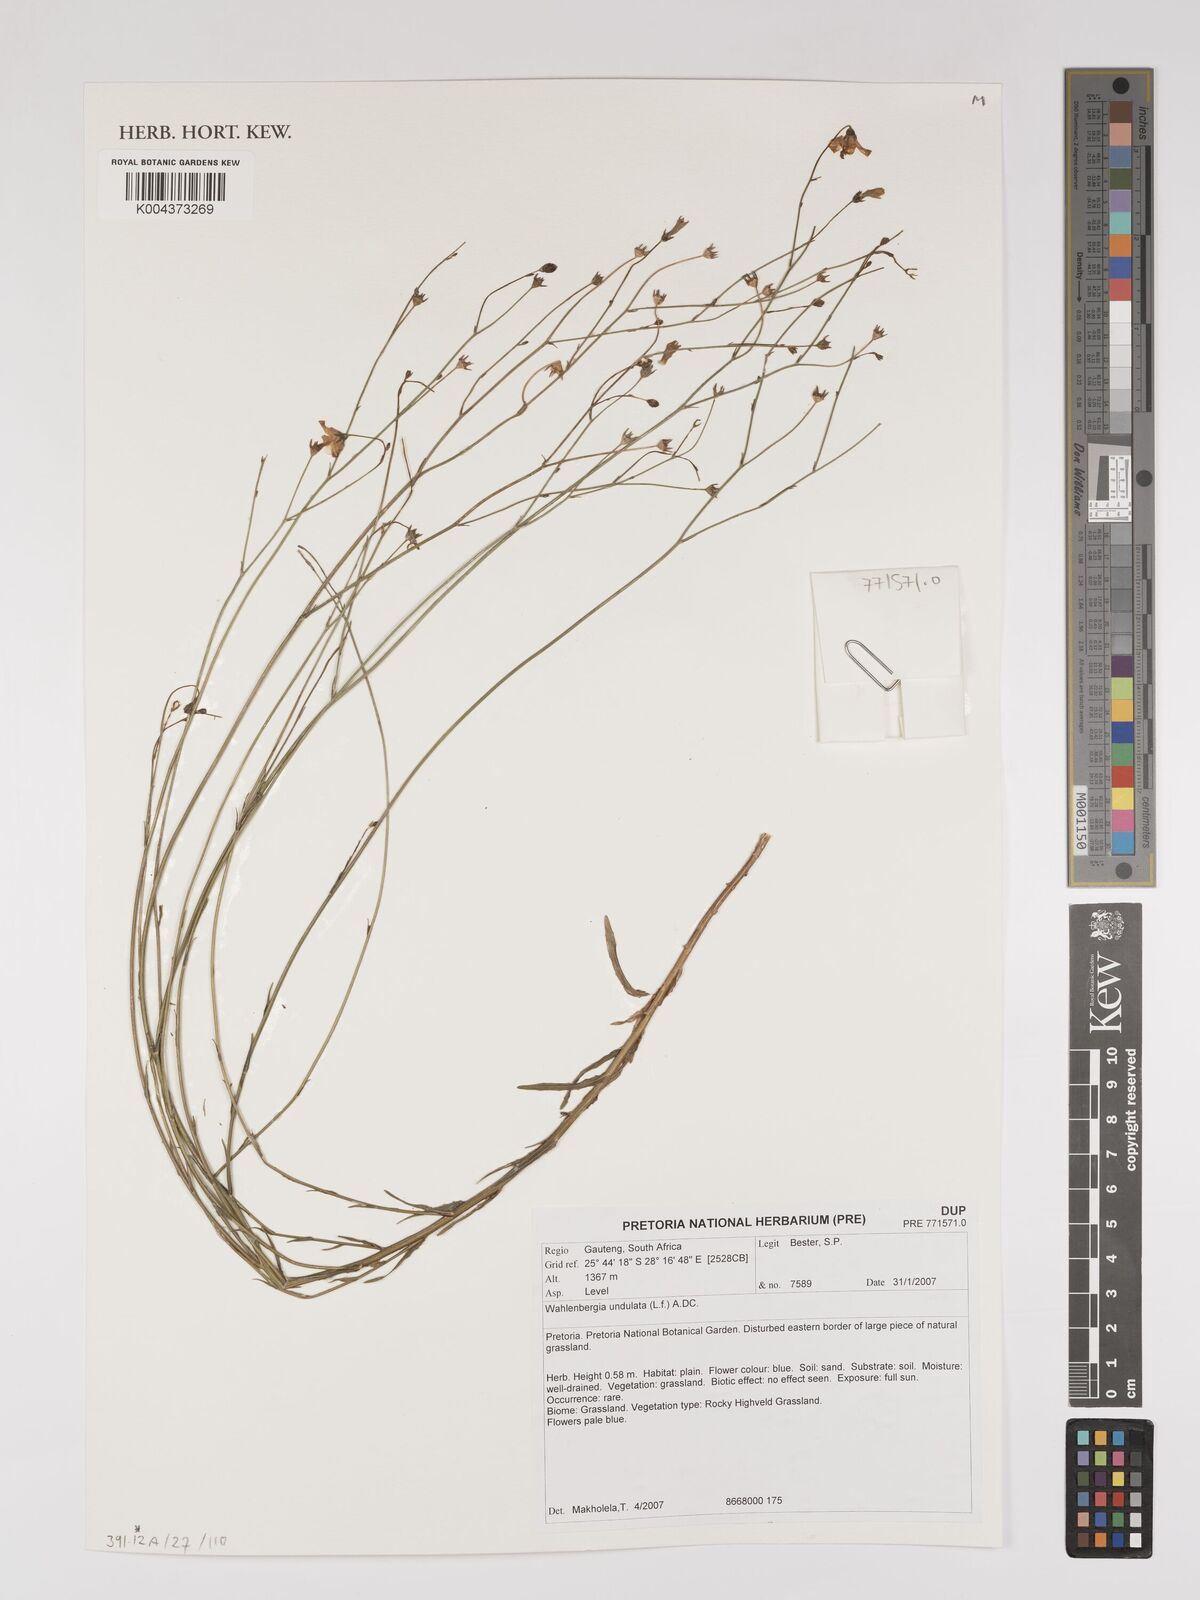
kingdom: Plantae
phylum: Tracheophyta
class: Magnoliopsida
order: Asterales
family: Campanulaceae
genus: Wahlenbergia
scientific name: Wahlenbergia undulata
